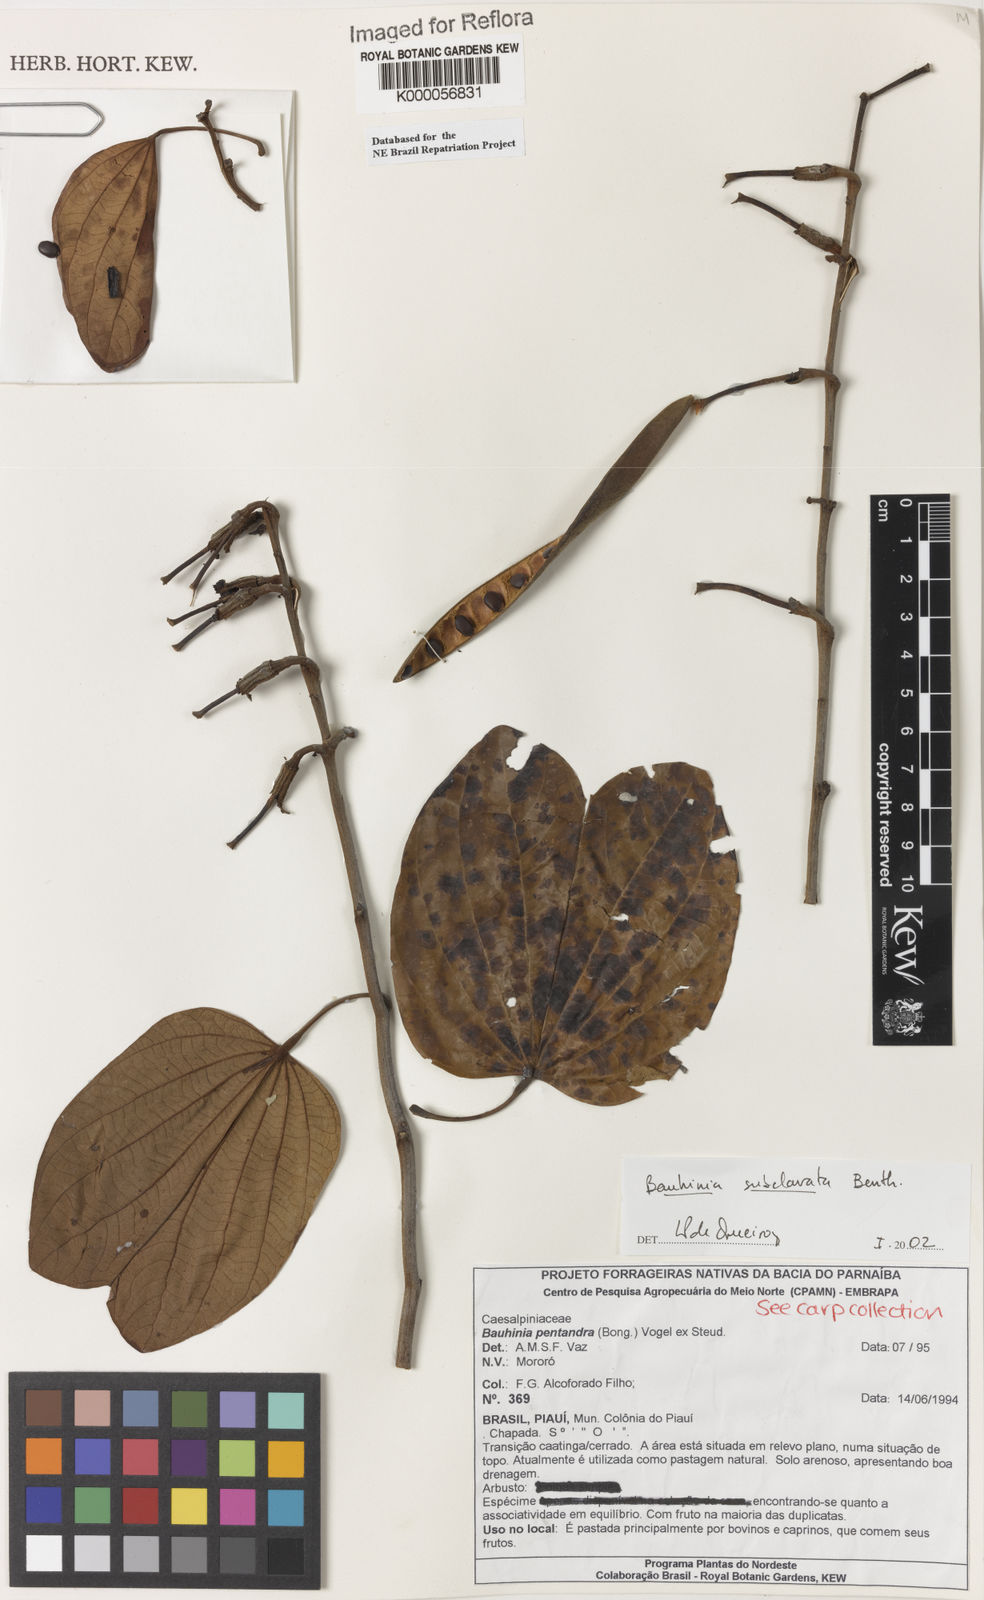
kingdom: Plantae
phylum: Tracheophyta
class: Magnoliopsida
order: Fabales
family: Fabaceae
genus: Bauhinia
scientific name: Bauhinia subclavata
